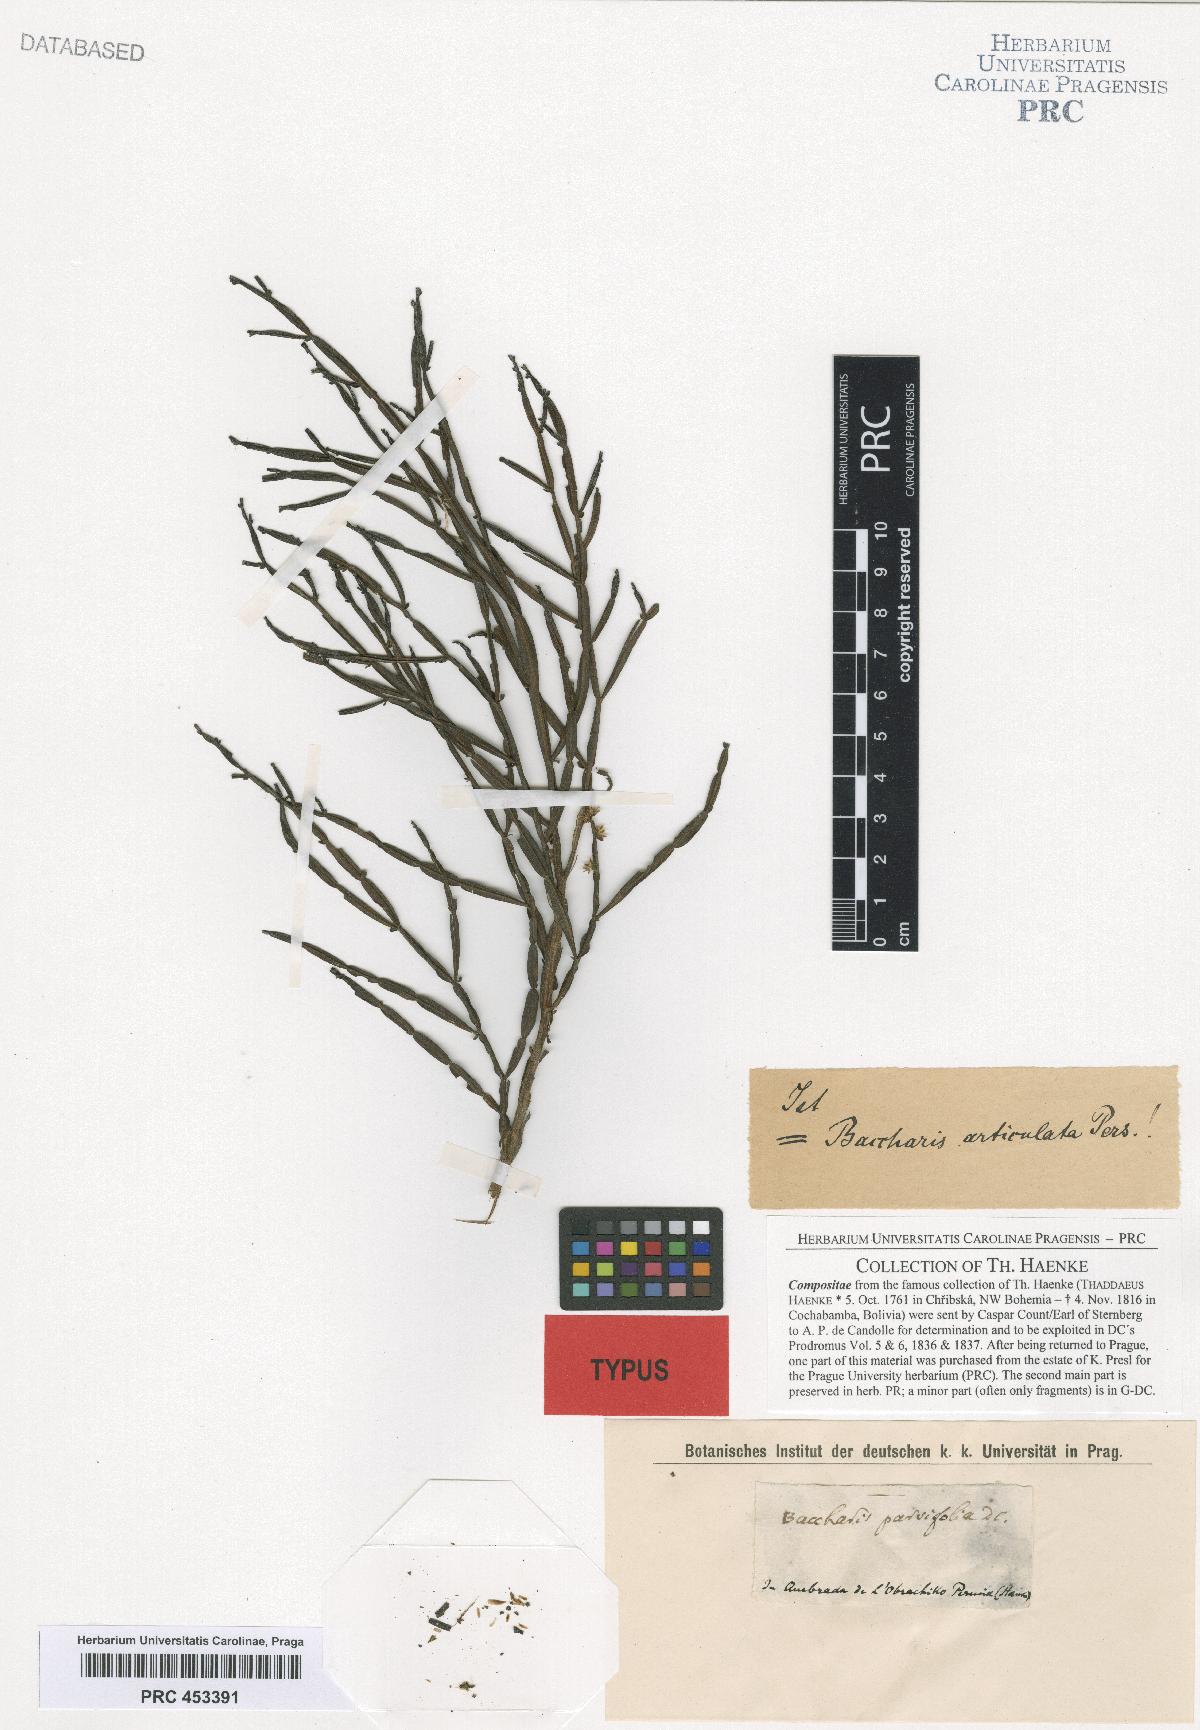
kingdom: Plantae
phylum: Tracheophyta
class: Magnoliopsida
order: Asterales
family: Asteraceae
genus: Baccharis
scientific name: Baccharis parvifolia
